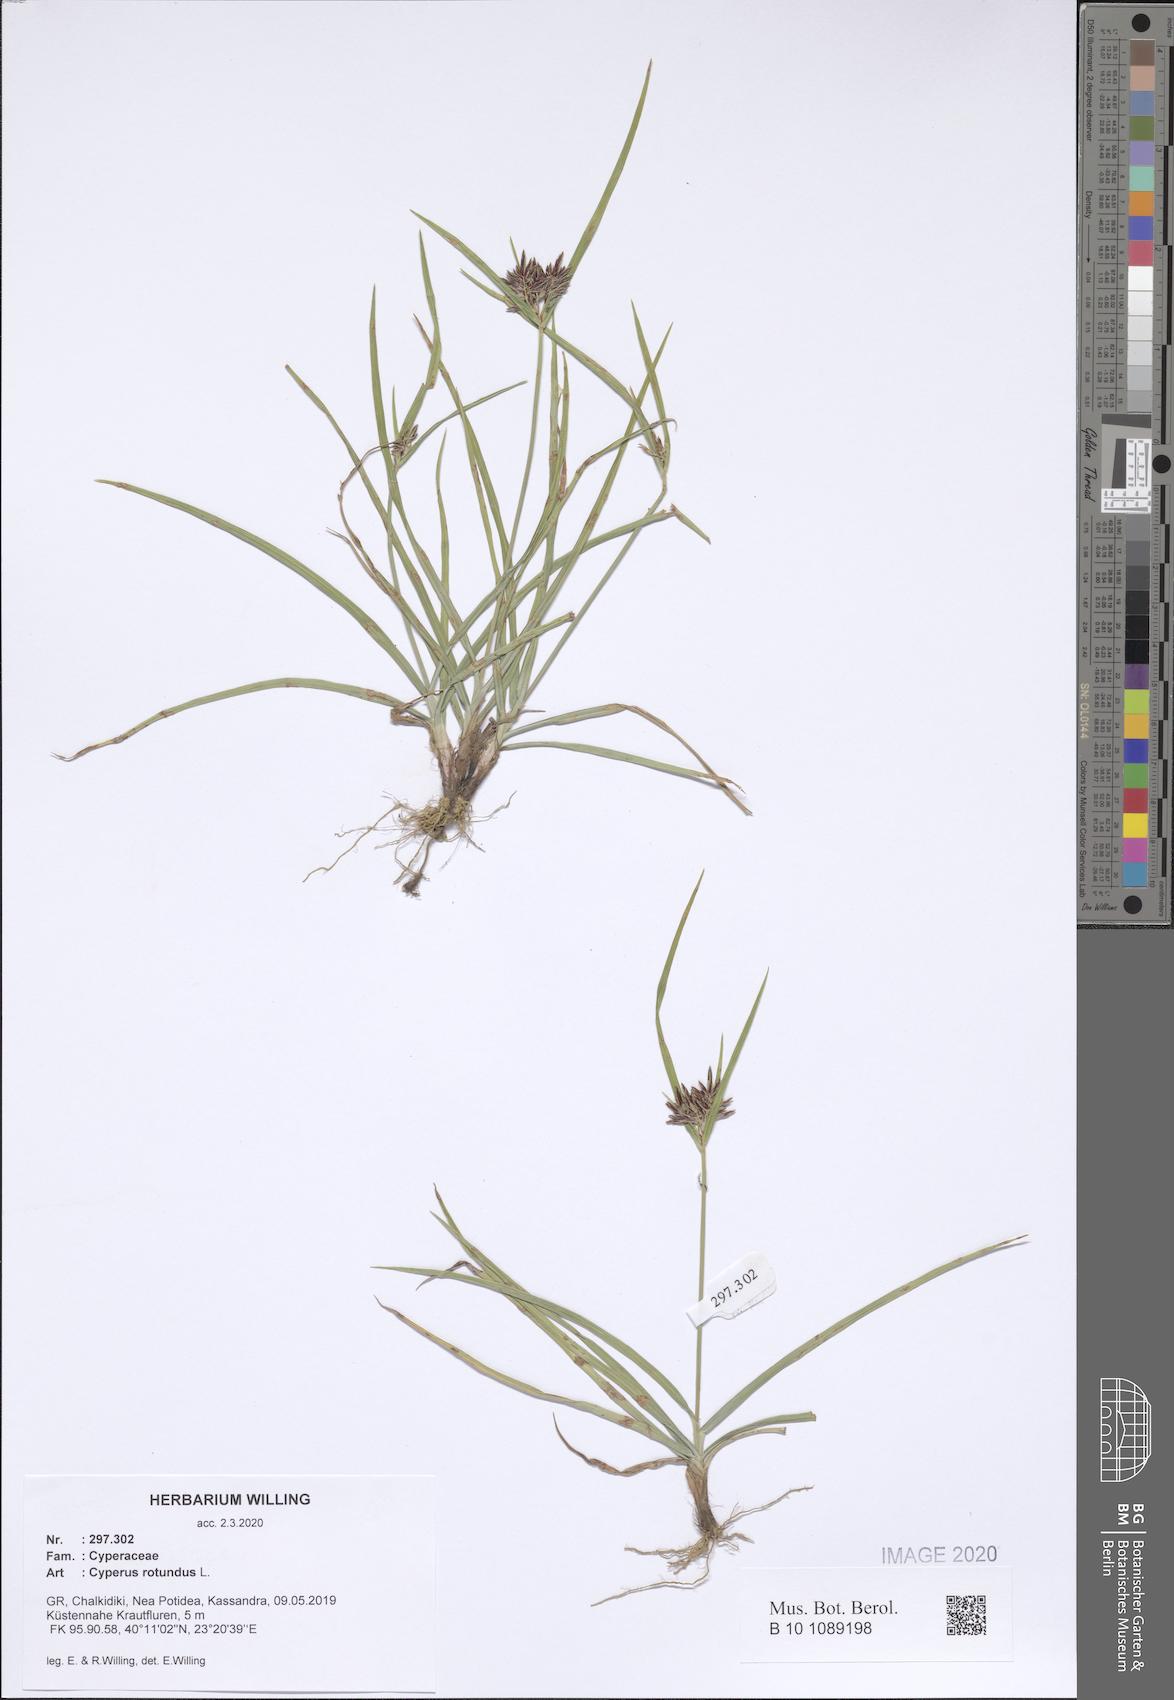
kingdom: Plantae
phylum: Tracheophyta
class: Liliopsida
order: Poales
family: Cyperaceae
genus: Cyperus
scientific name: Cyperus rotundus
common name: Nutgrass
